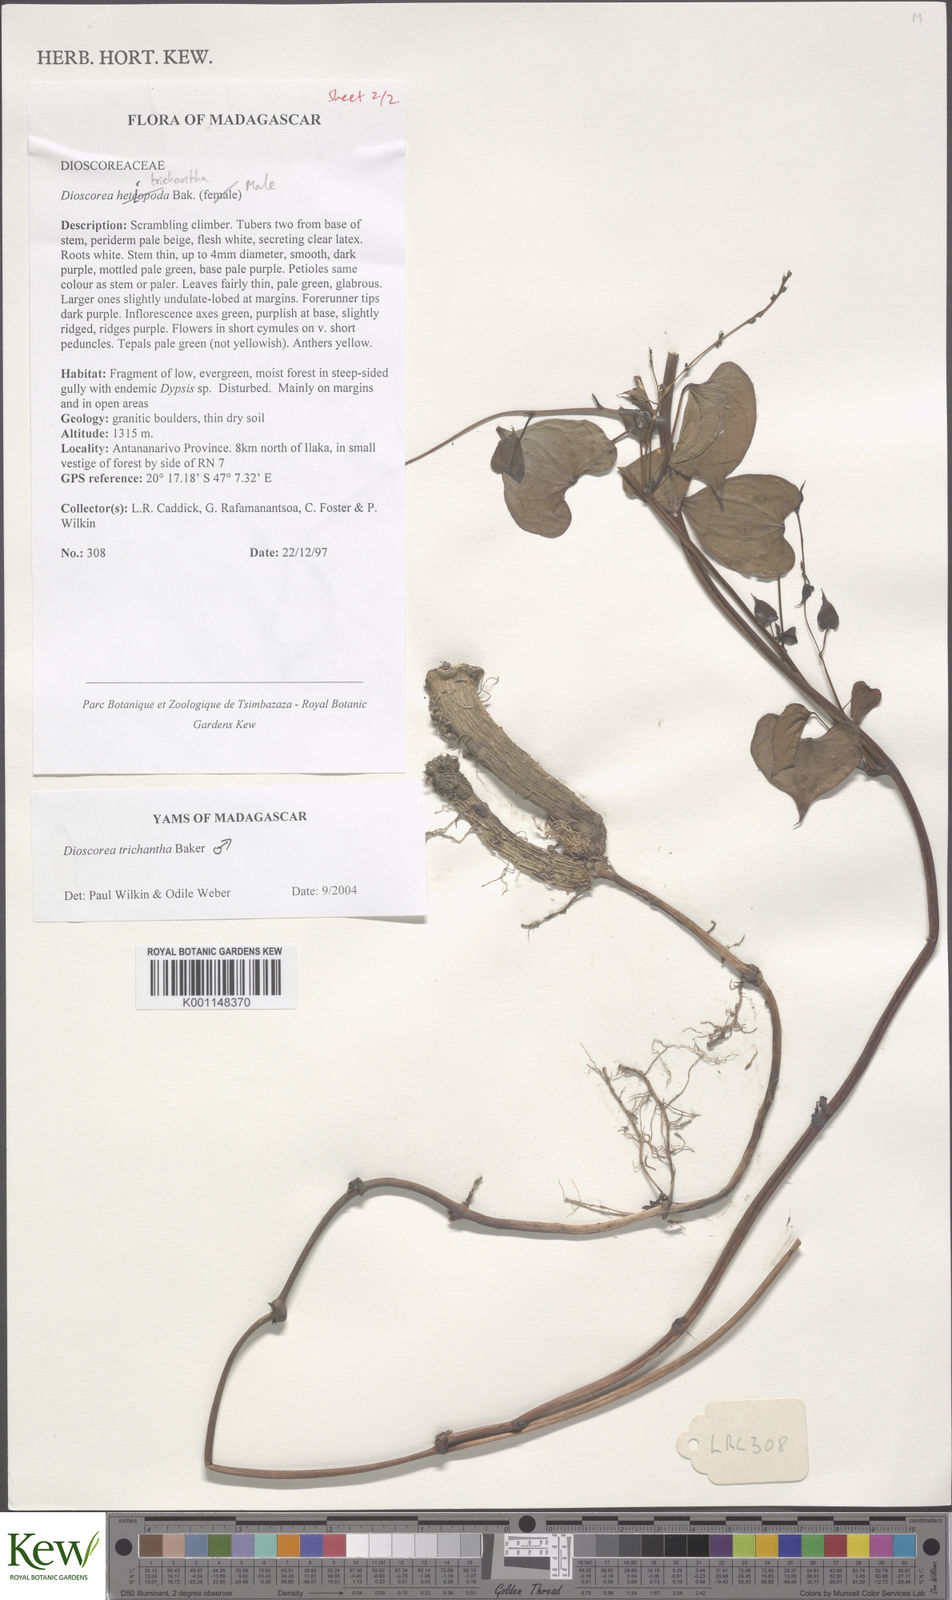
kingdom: Plantae
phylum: Tracheophyta
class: Liliopsida
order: Dioscoreales
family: Dioscoreaceae
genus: Dioscorea
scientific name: Dioscorea trichantha
